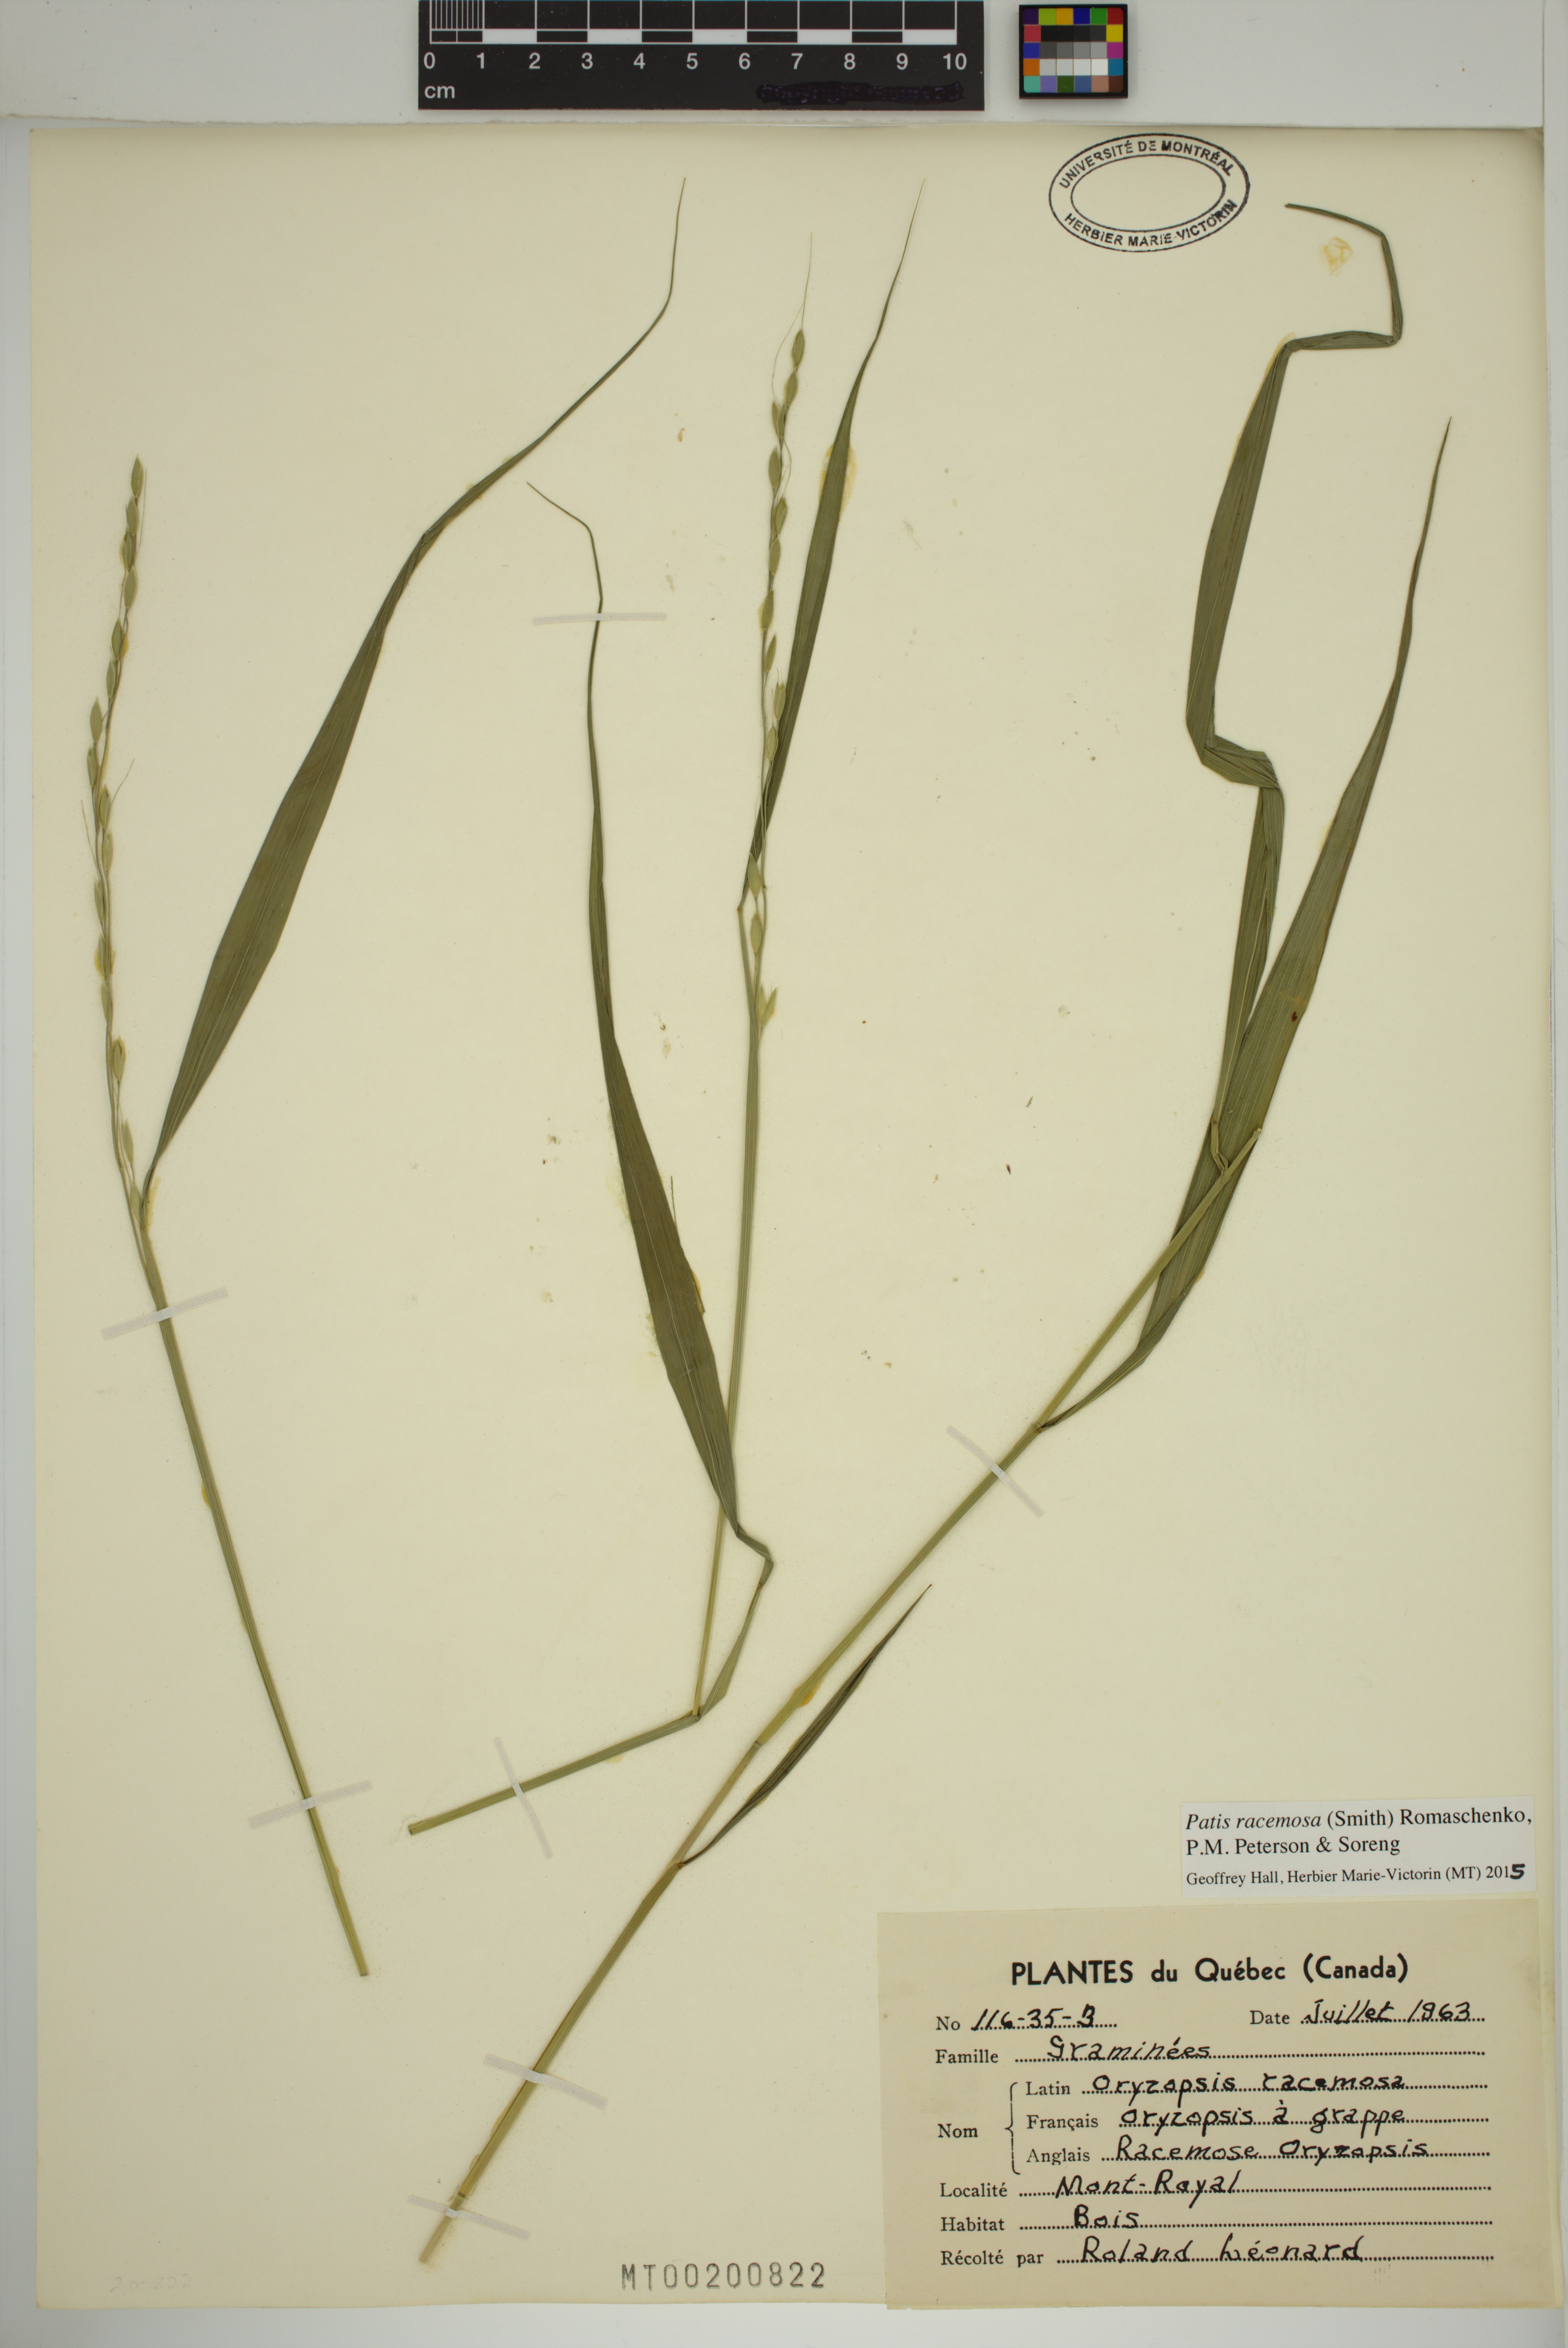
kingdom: Plantae
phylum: Tracheophyta
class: Liliopsida
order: Poales
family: Poaceae
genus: Patis
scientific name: Patis racemosa
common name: Black-fruited mountain rice
